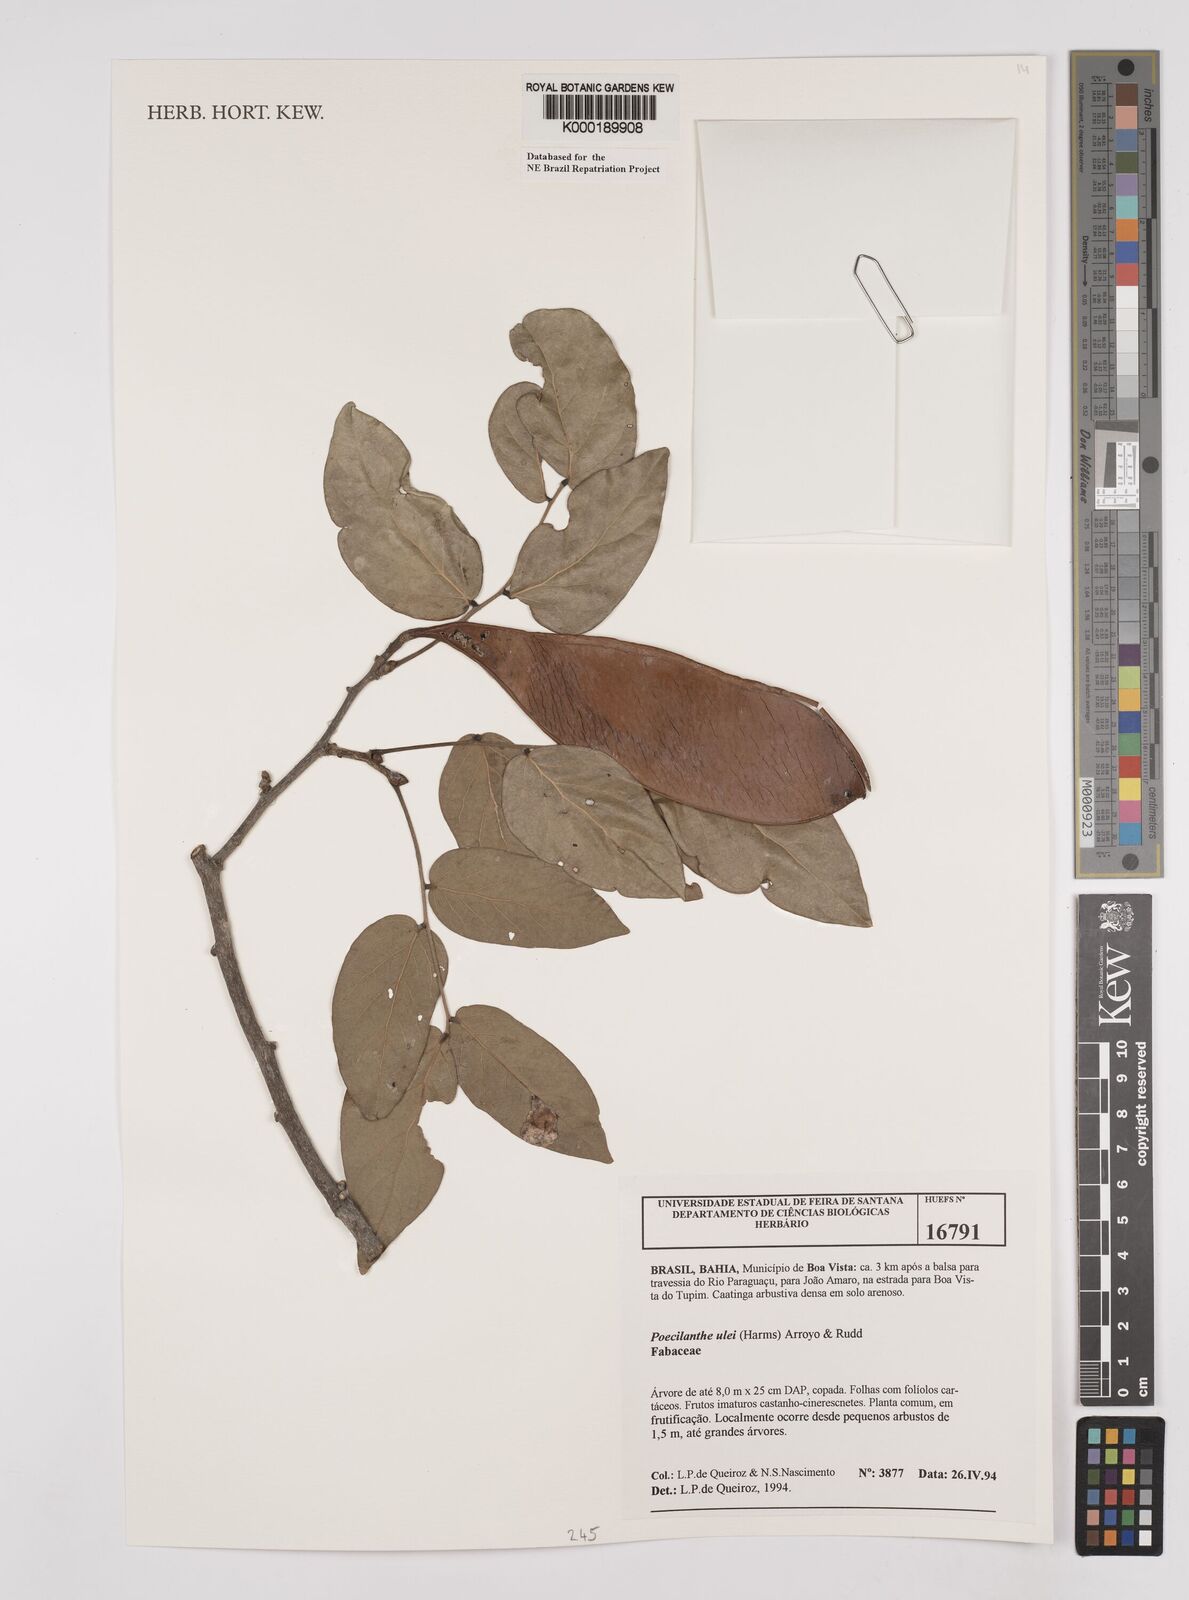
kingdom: Plantae
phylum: Tracheophyta
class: Magnoliopsida
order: Fabales
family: Fabaceae
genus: Poecilanthe
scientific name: Poecilanthe ulei
